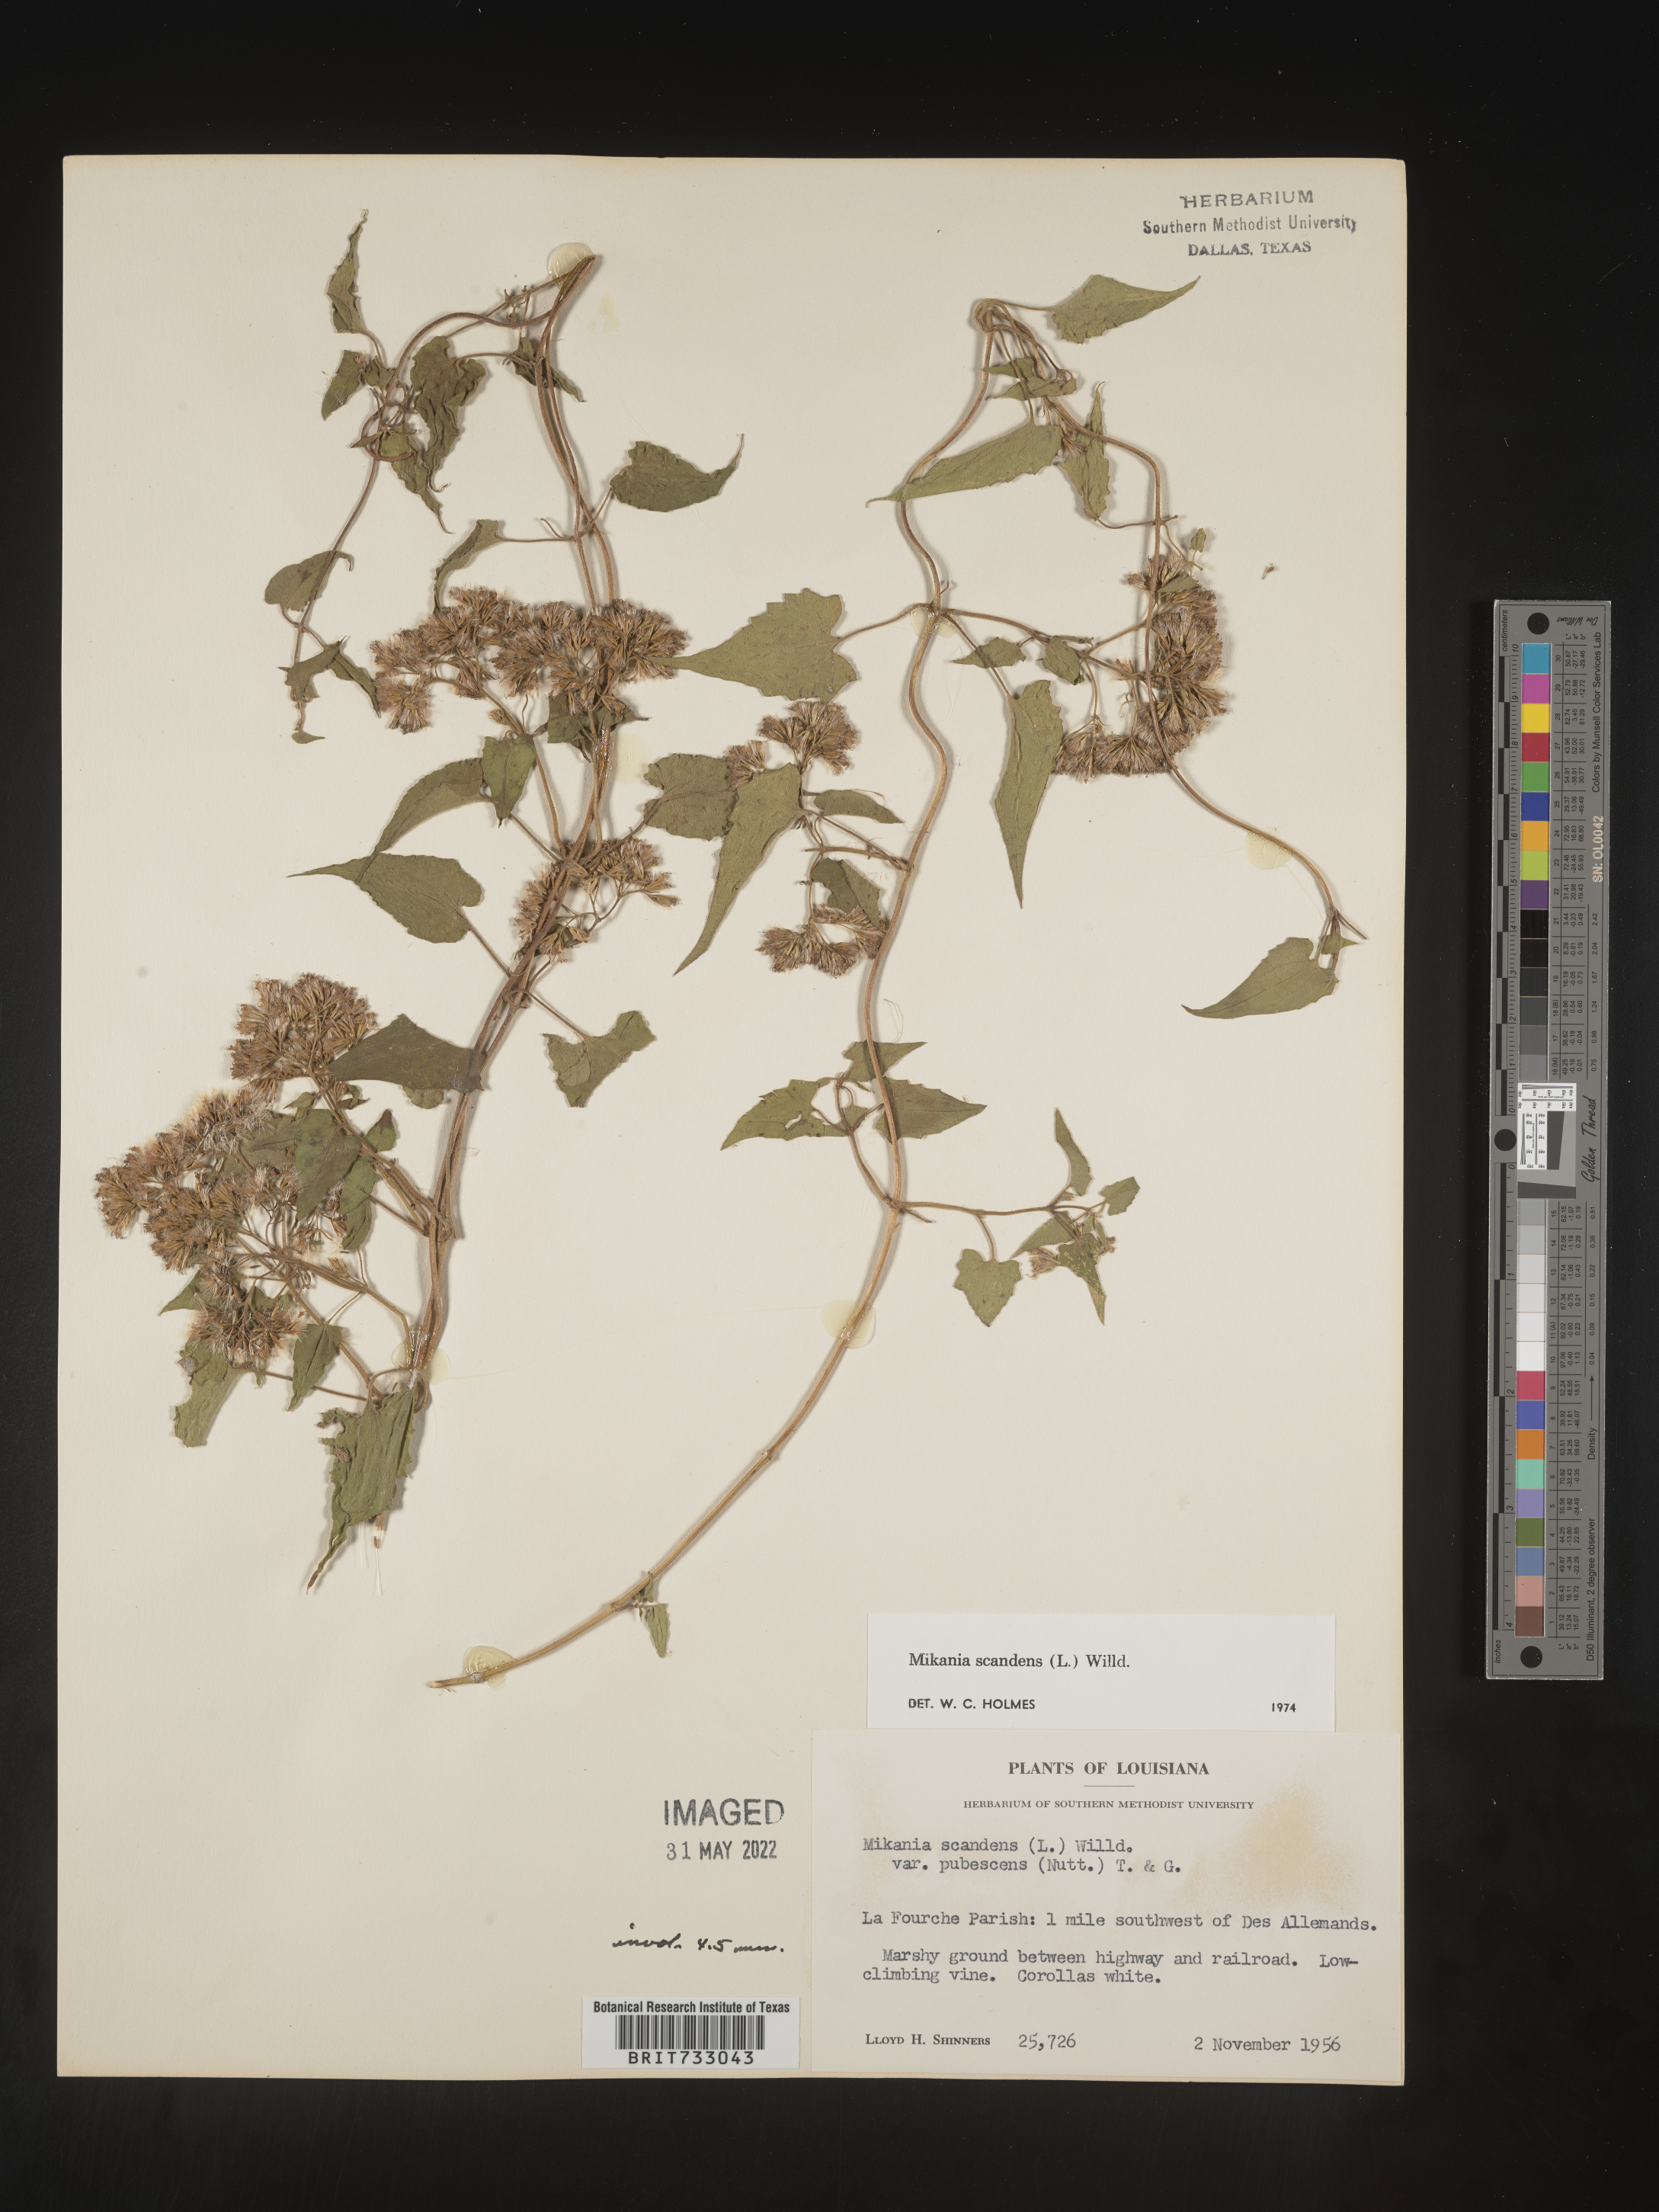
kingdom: Plantae
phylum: Tracheophyta
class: Magnoliopsida
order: Asterales
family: Asteraceae
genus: Mikania
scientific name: Mikania scandens
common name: Climbing hempvine
